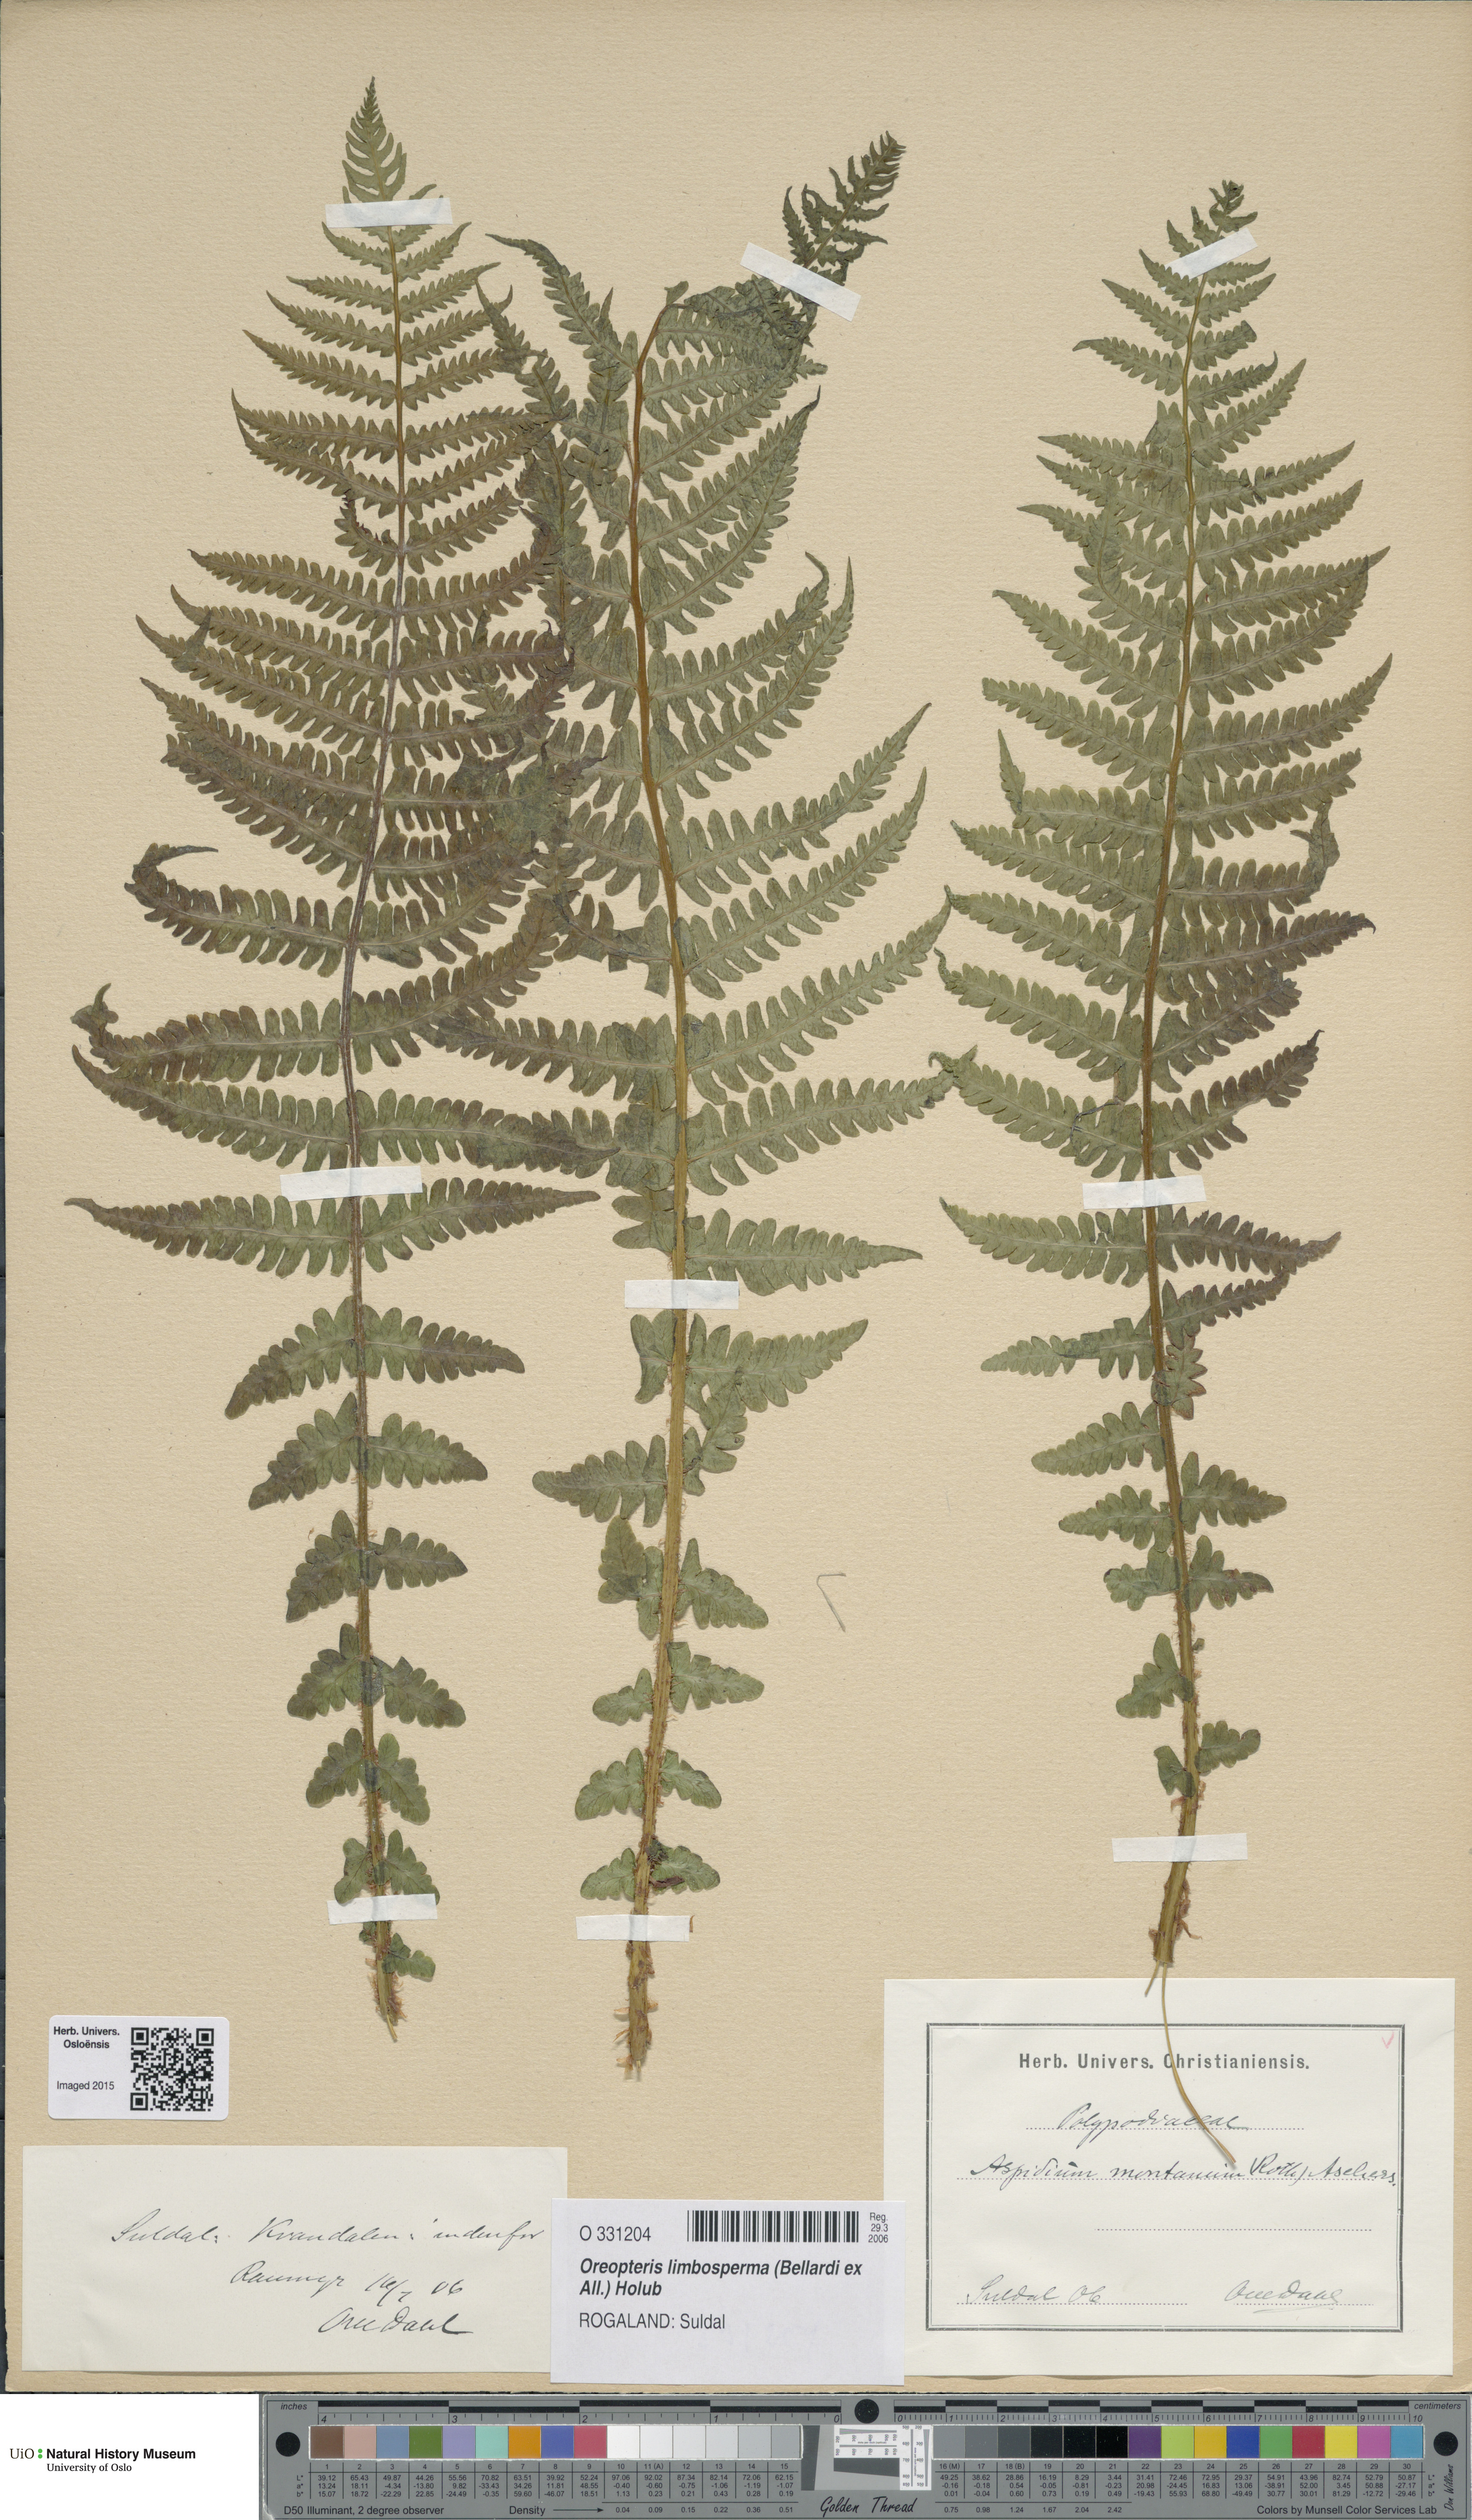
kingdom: Plantae
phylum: Tracheophyta
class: Polypodiopsida
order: Polypodiales
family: Thelypteridaceae
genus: Oreopteris
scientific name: Oreopteris limbosperma
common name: Lemon-scented fern
